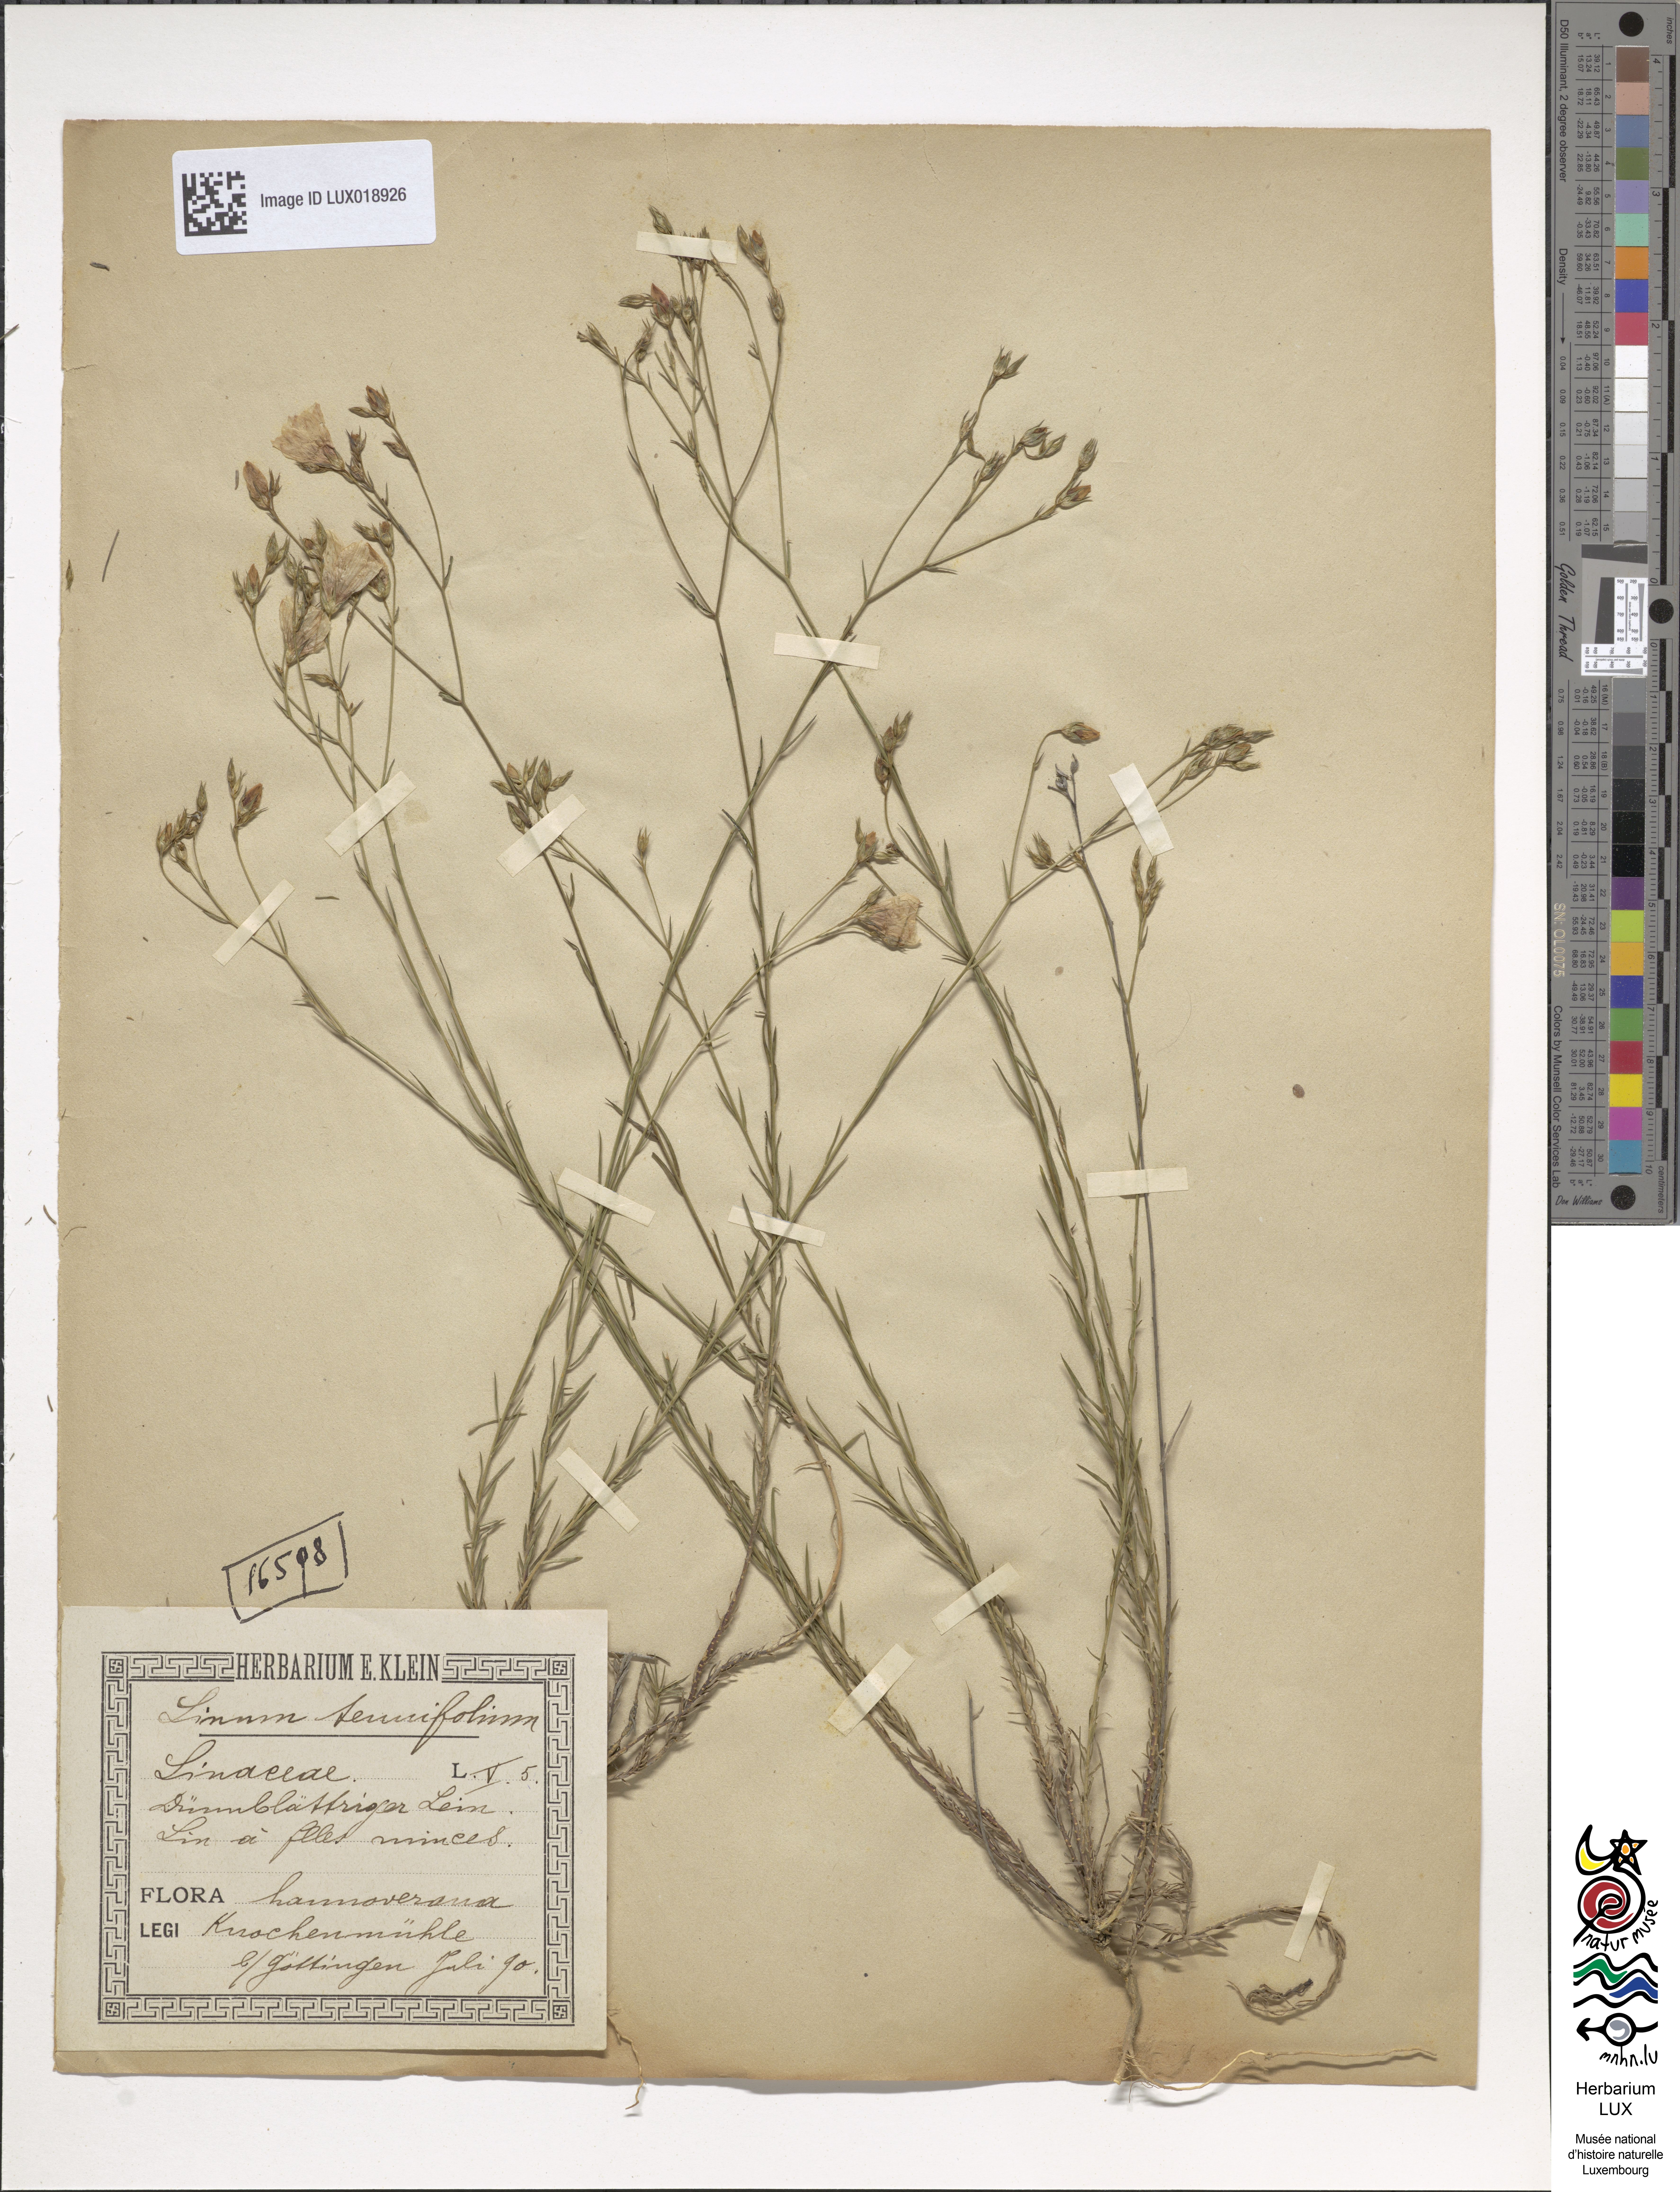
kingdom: Plantae
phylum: Tracheophyta
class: Magnoliopsida
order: Malpighiales
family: Linaceae
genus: Linum
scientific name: Linum tenuifolium
